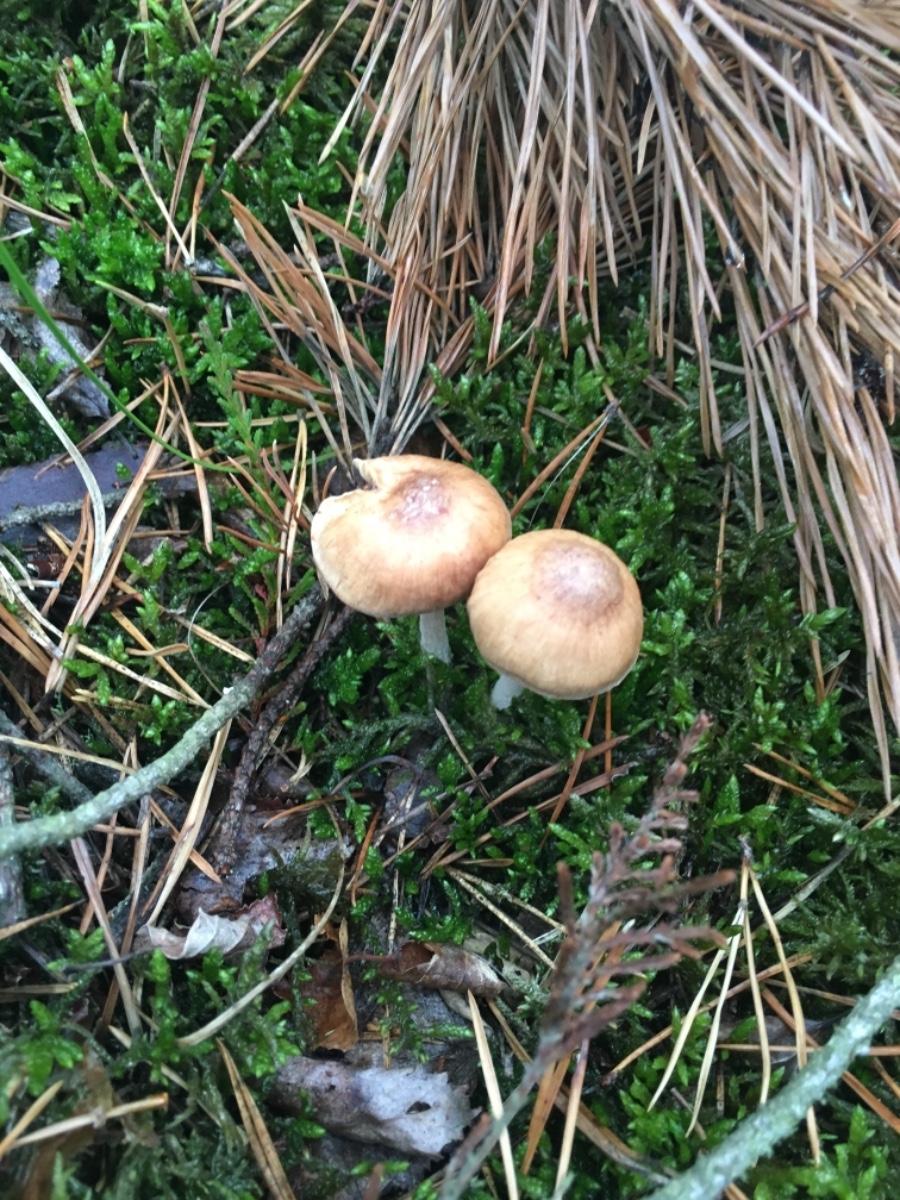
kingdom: Fungi
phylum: Basidiomycota
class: Agaricomycetes
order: Agaricales
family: Omphalotaceae
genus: Collybiopsis
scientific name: Collybiopsis peronata
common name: bestøvlet fladhat
